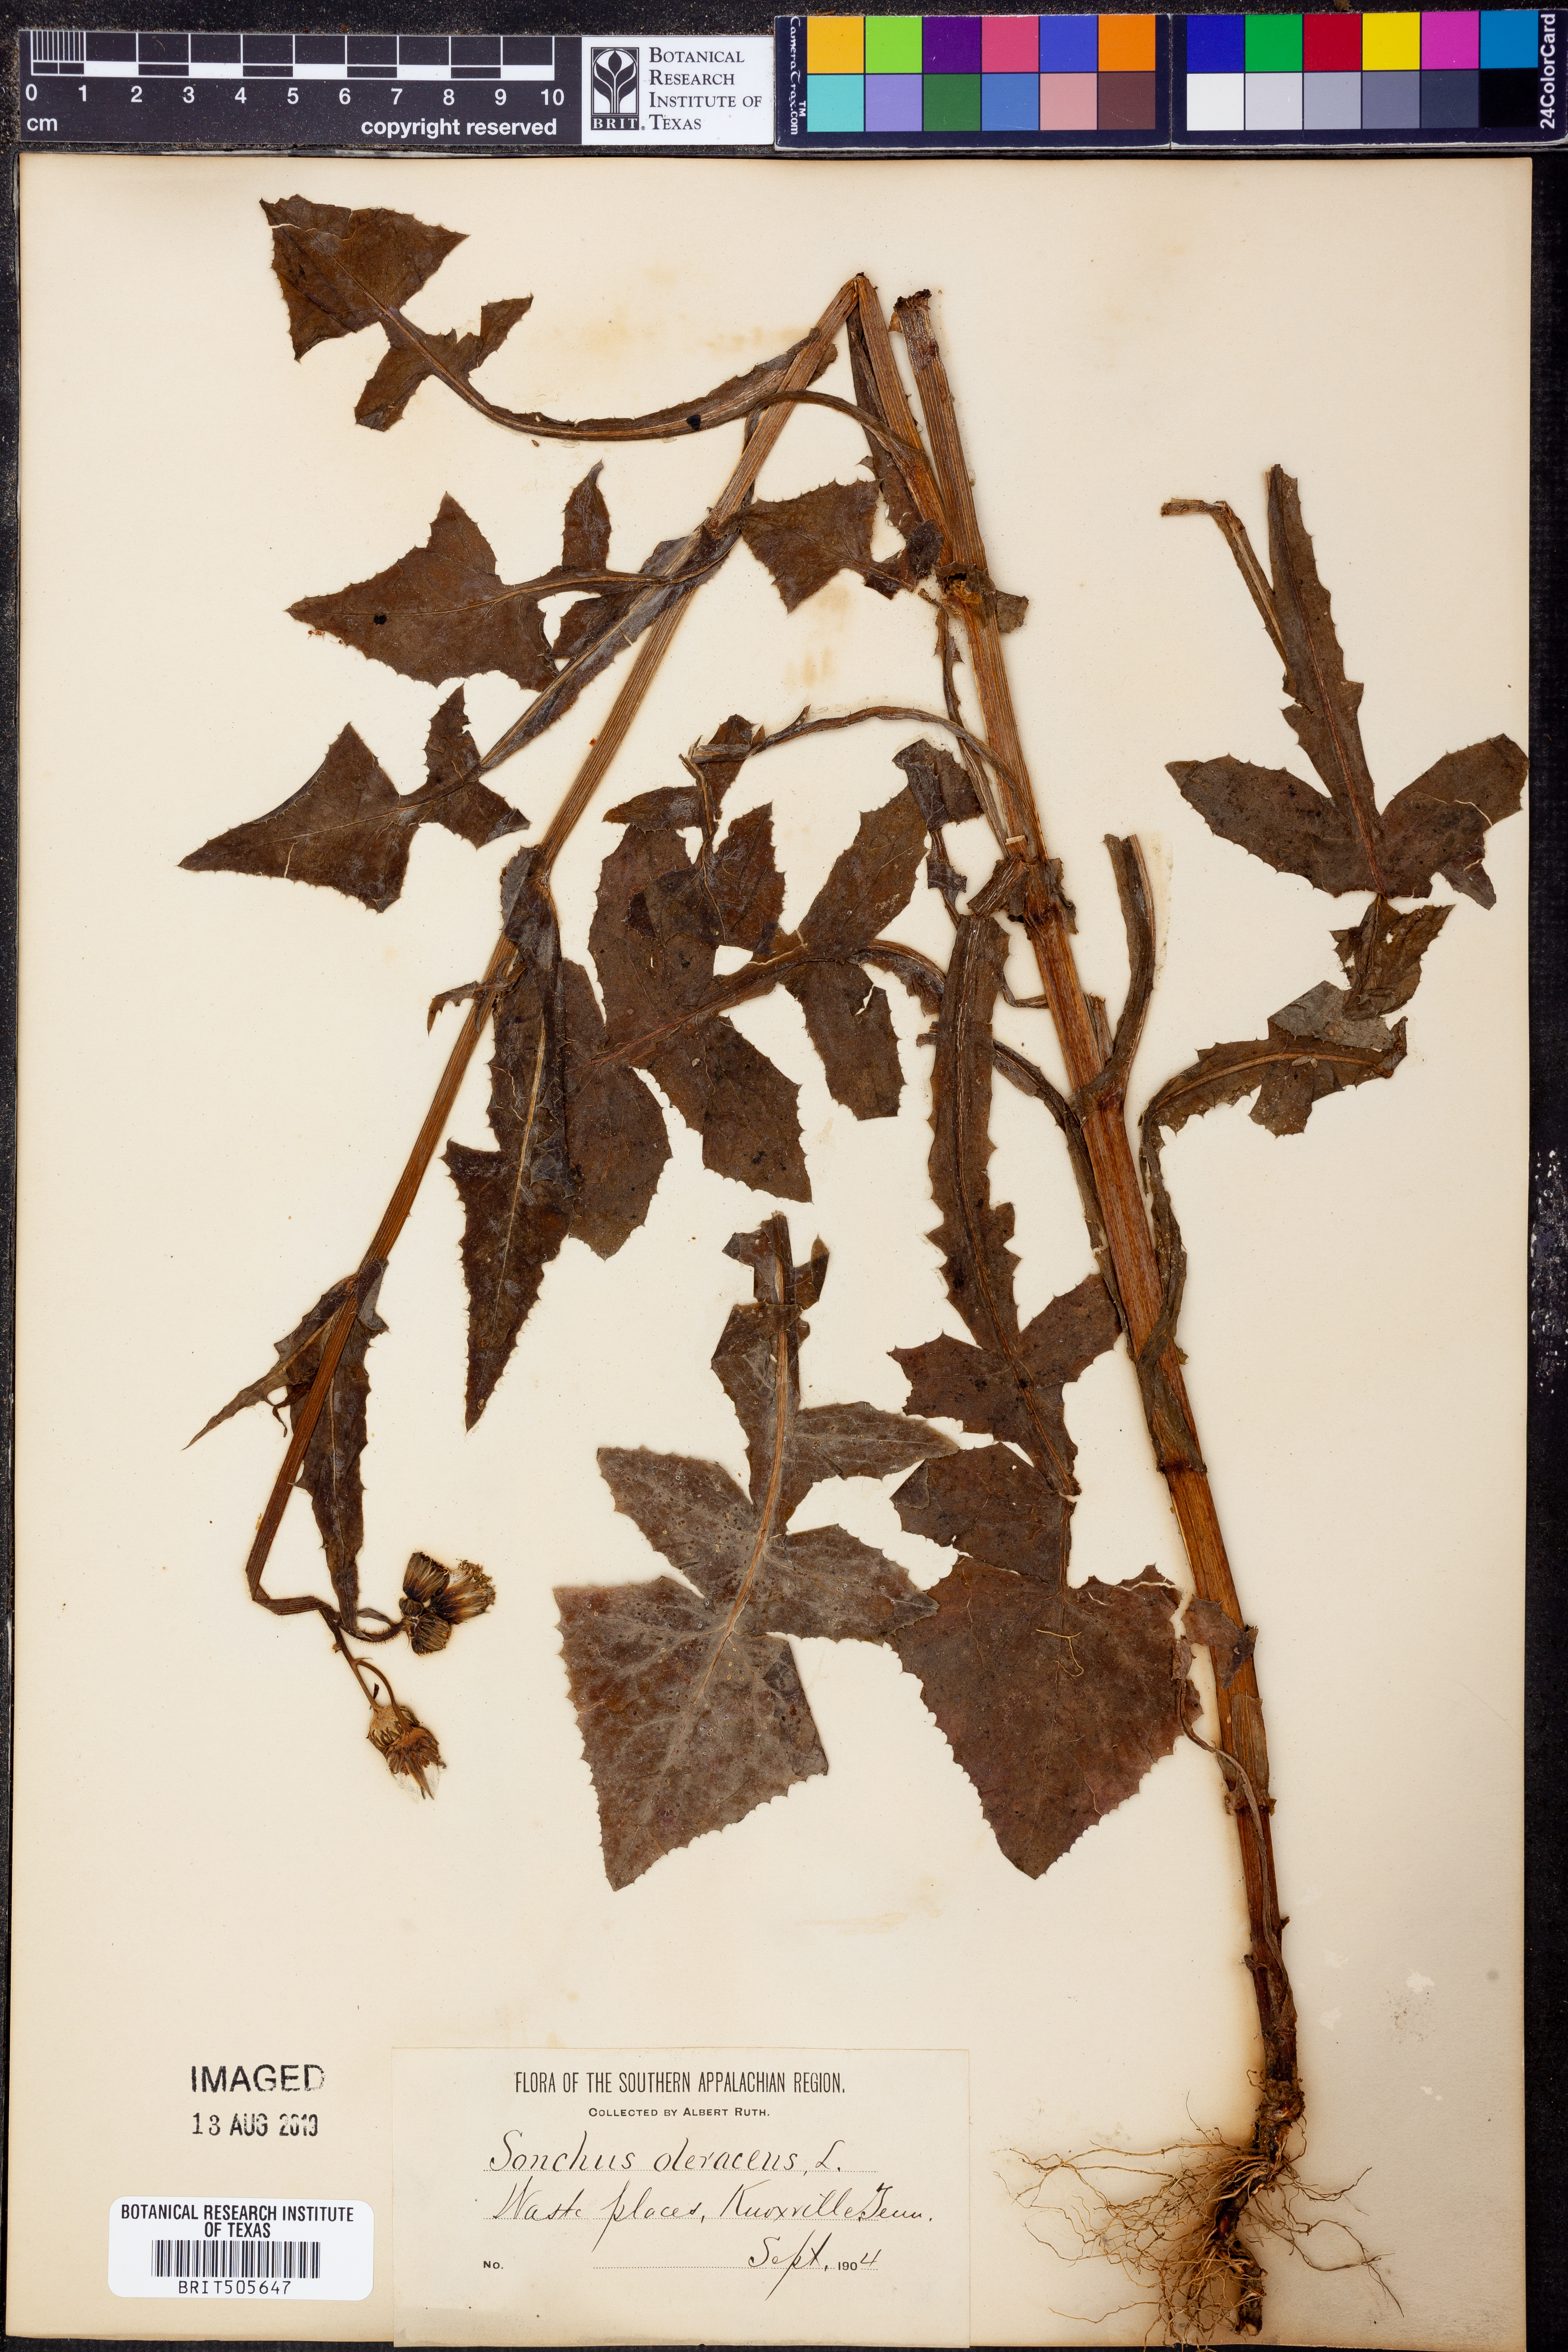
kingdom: Plantae
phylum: Tracheophyta
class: Magnoliopsida
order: Asterales
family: Asteraceae
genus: Sonchus
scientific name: Sonchus oleraceus
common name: Common sowthistle
